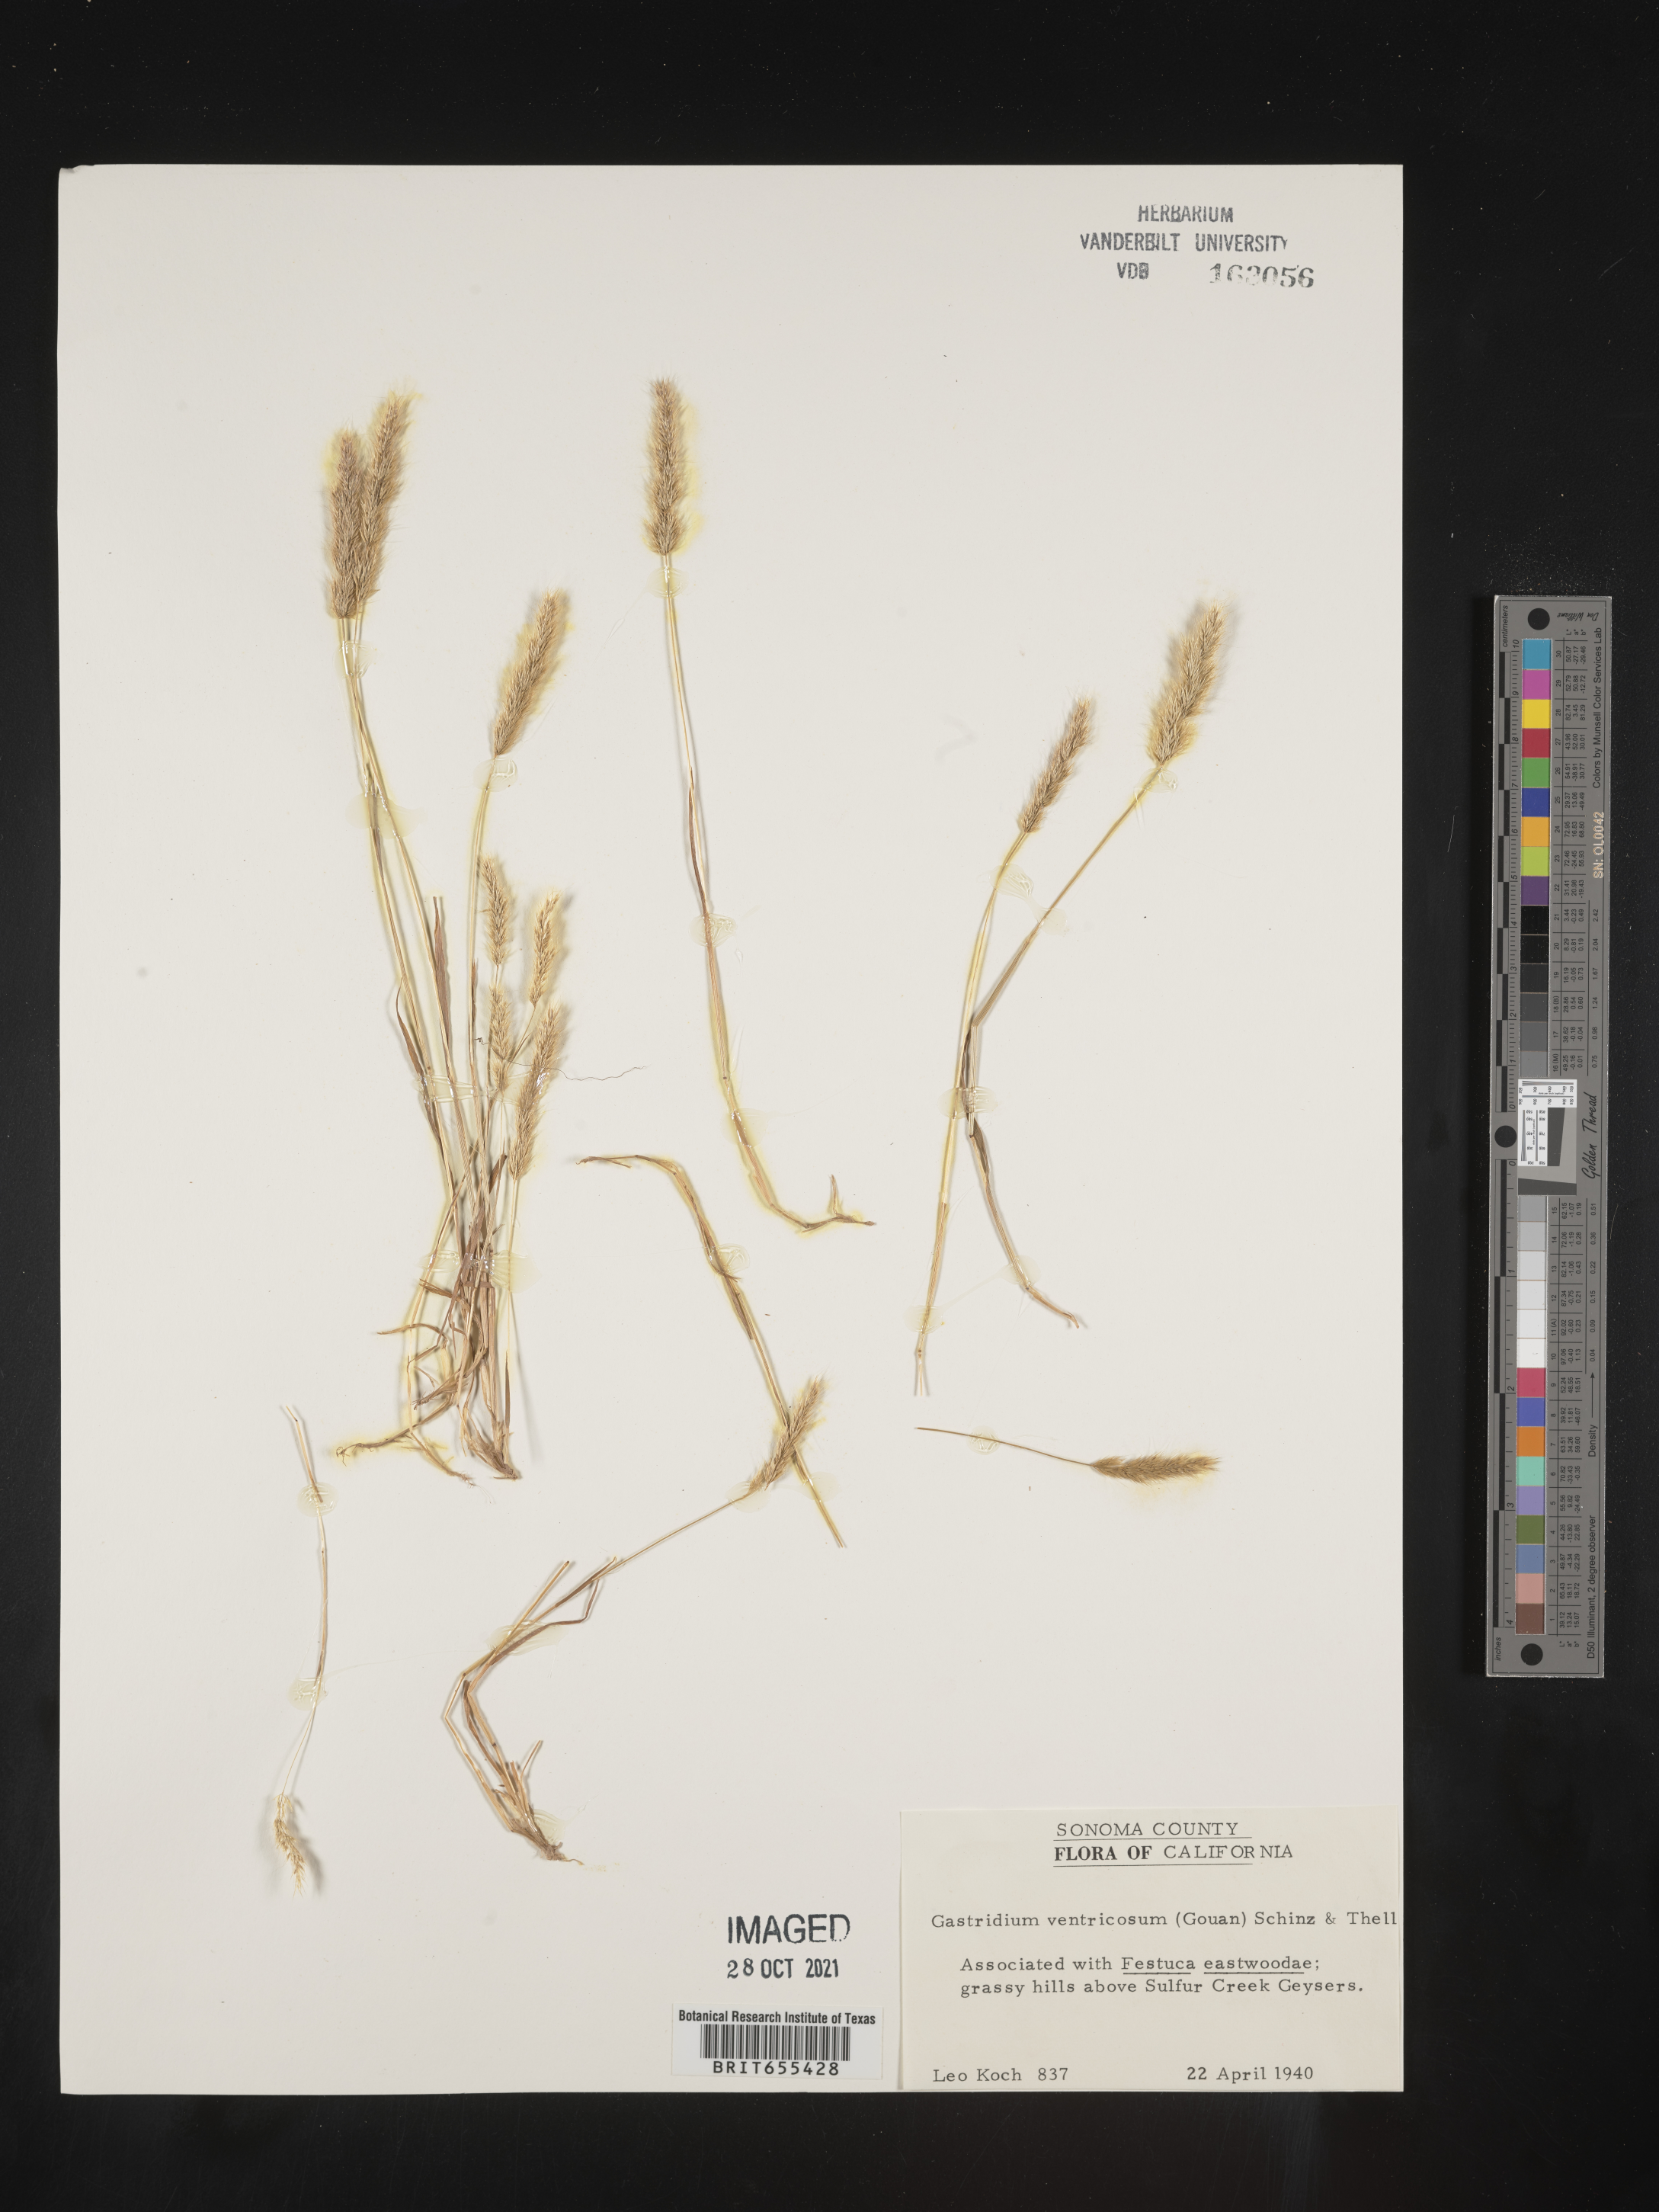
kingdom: Plantae
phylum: Tracheophyta
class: Liliopsida
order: Poales
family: Poaceae
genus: Gastridium
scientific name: Gastridium
